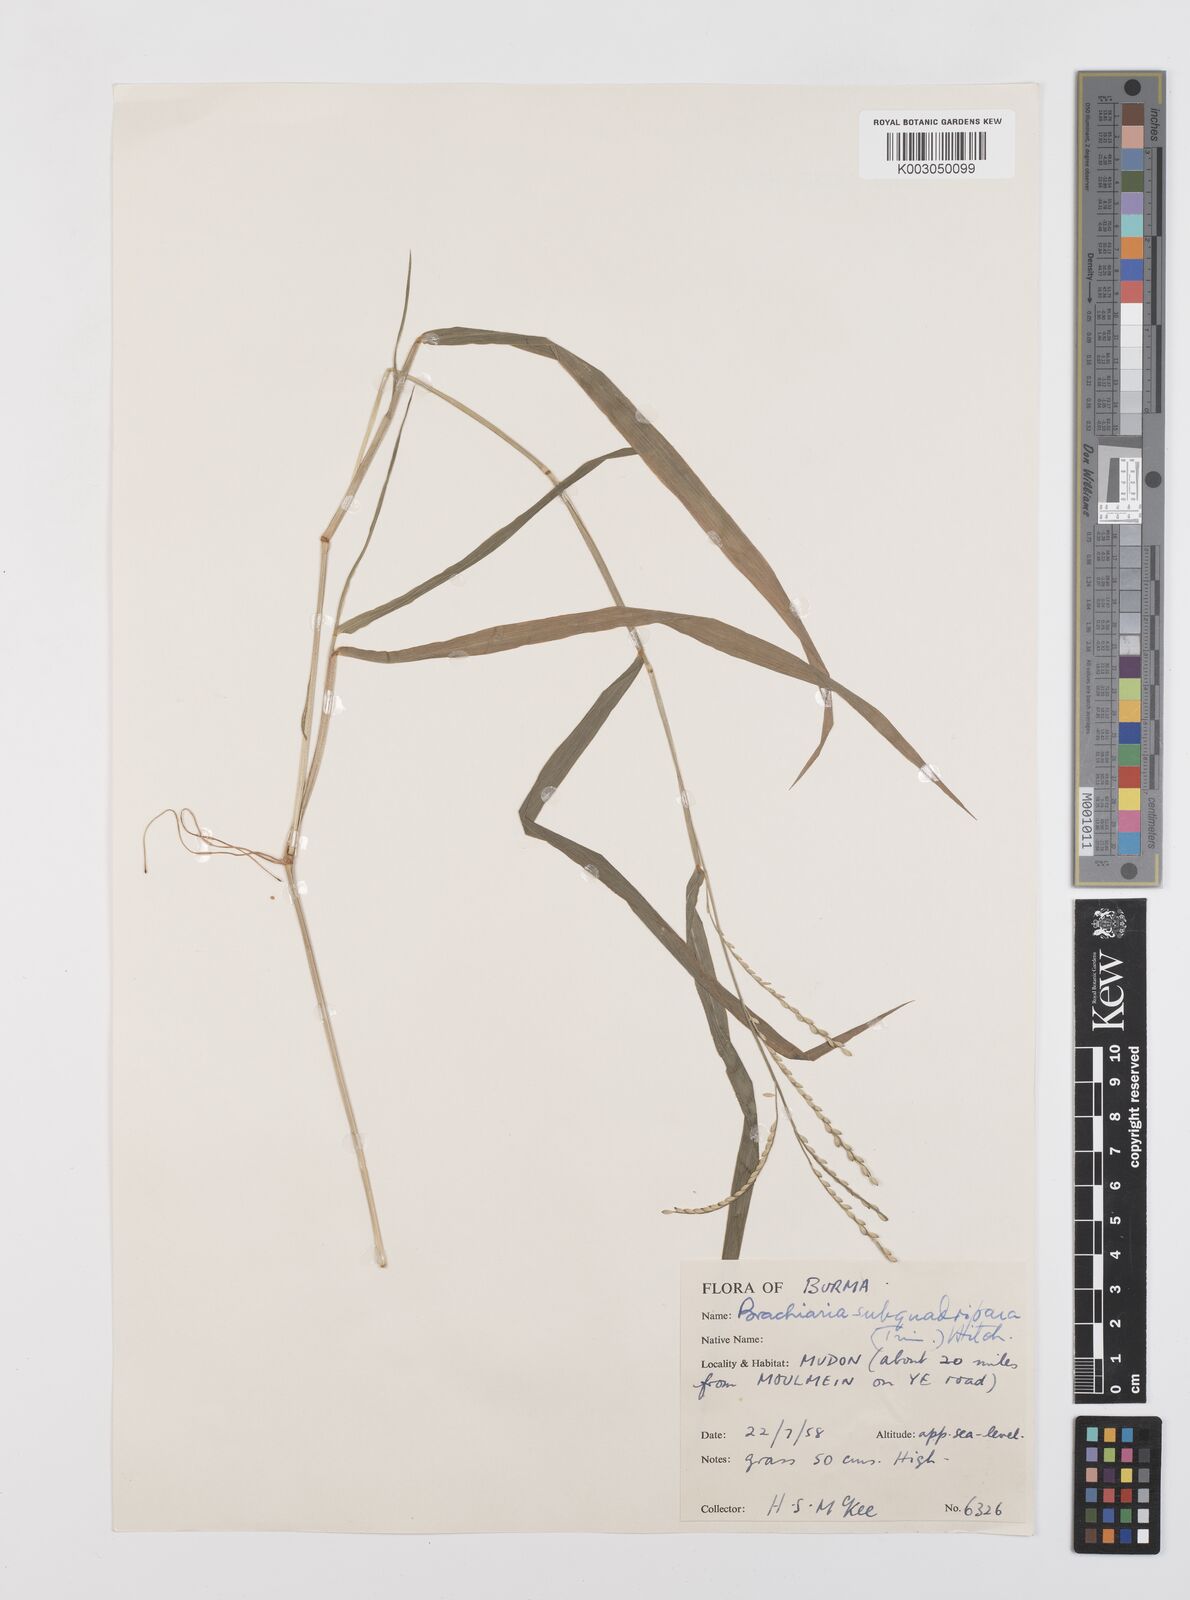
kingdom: Plantae
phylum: Tracheophyta
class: Liliopsida
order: Poales
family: Poaceae
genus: Urochloa
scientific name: Urochloa subquadripara
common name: Armgrass millet
